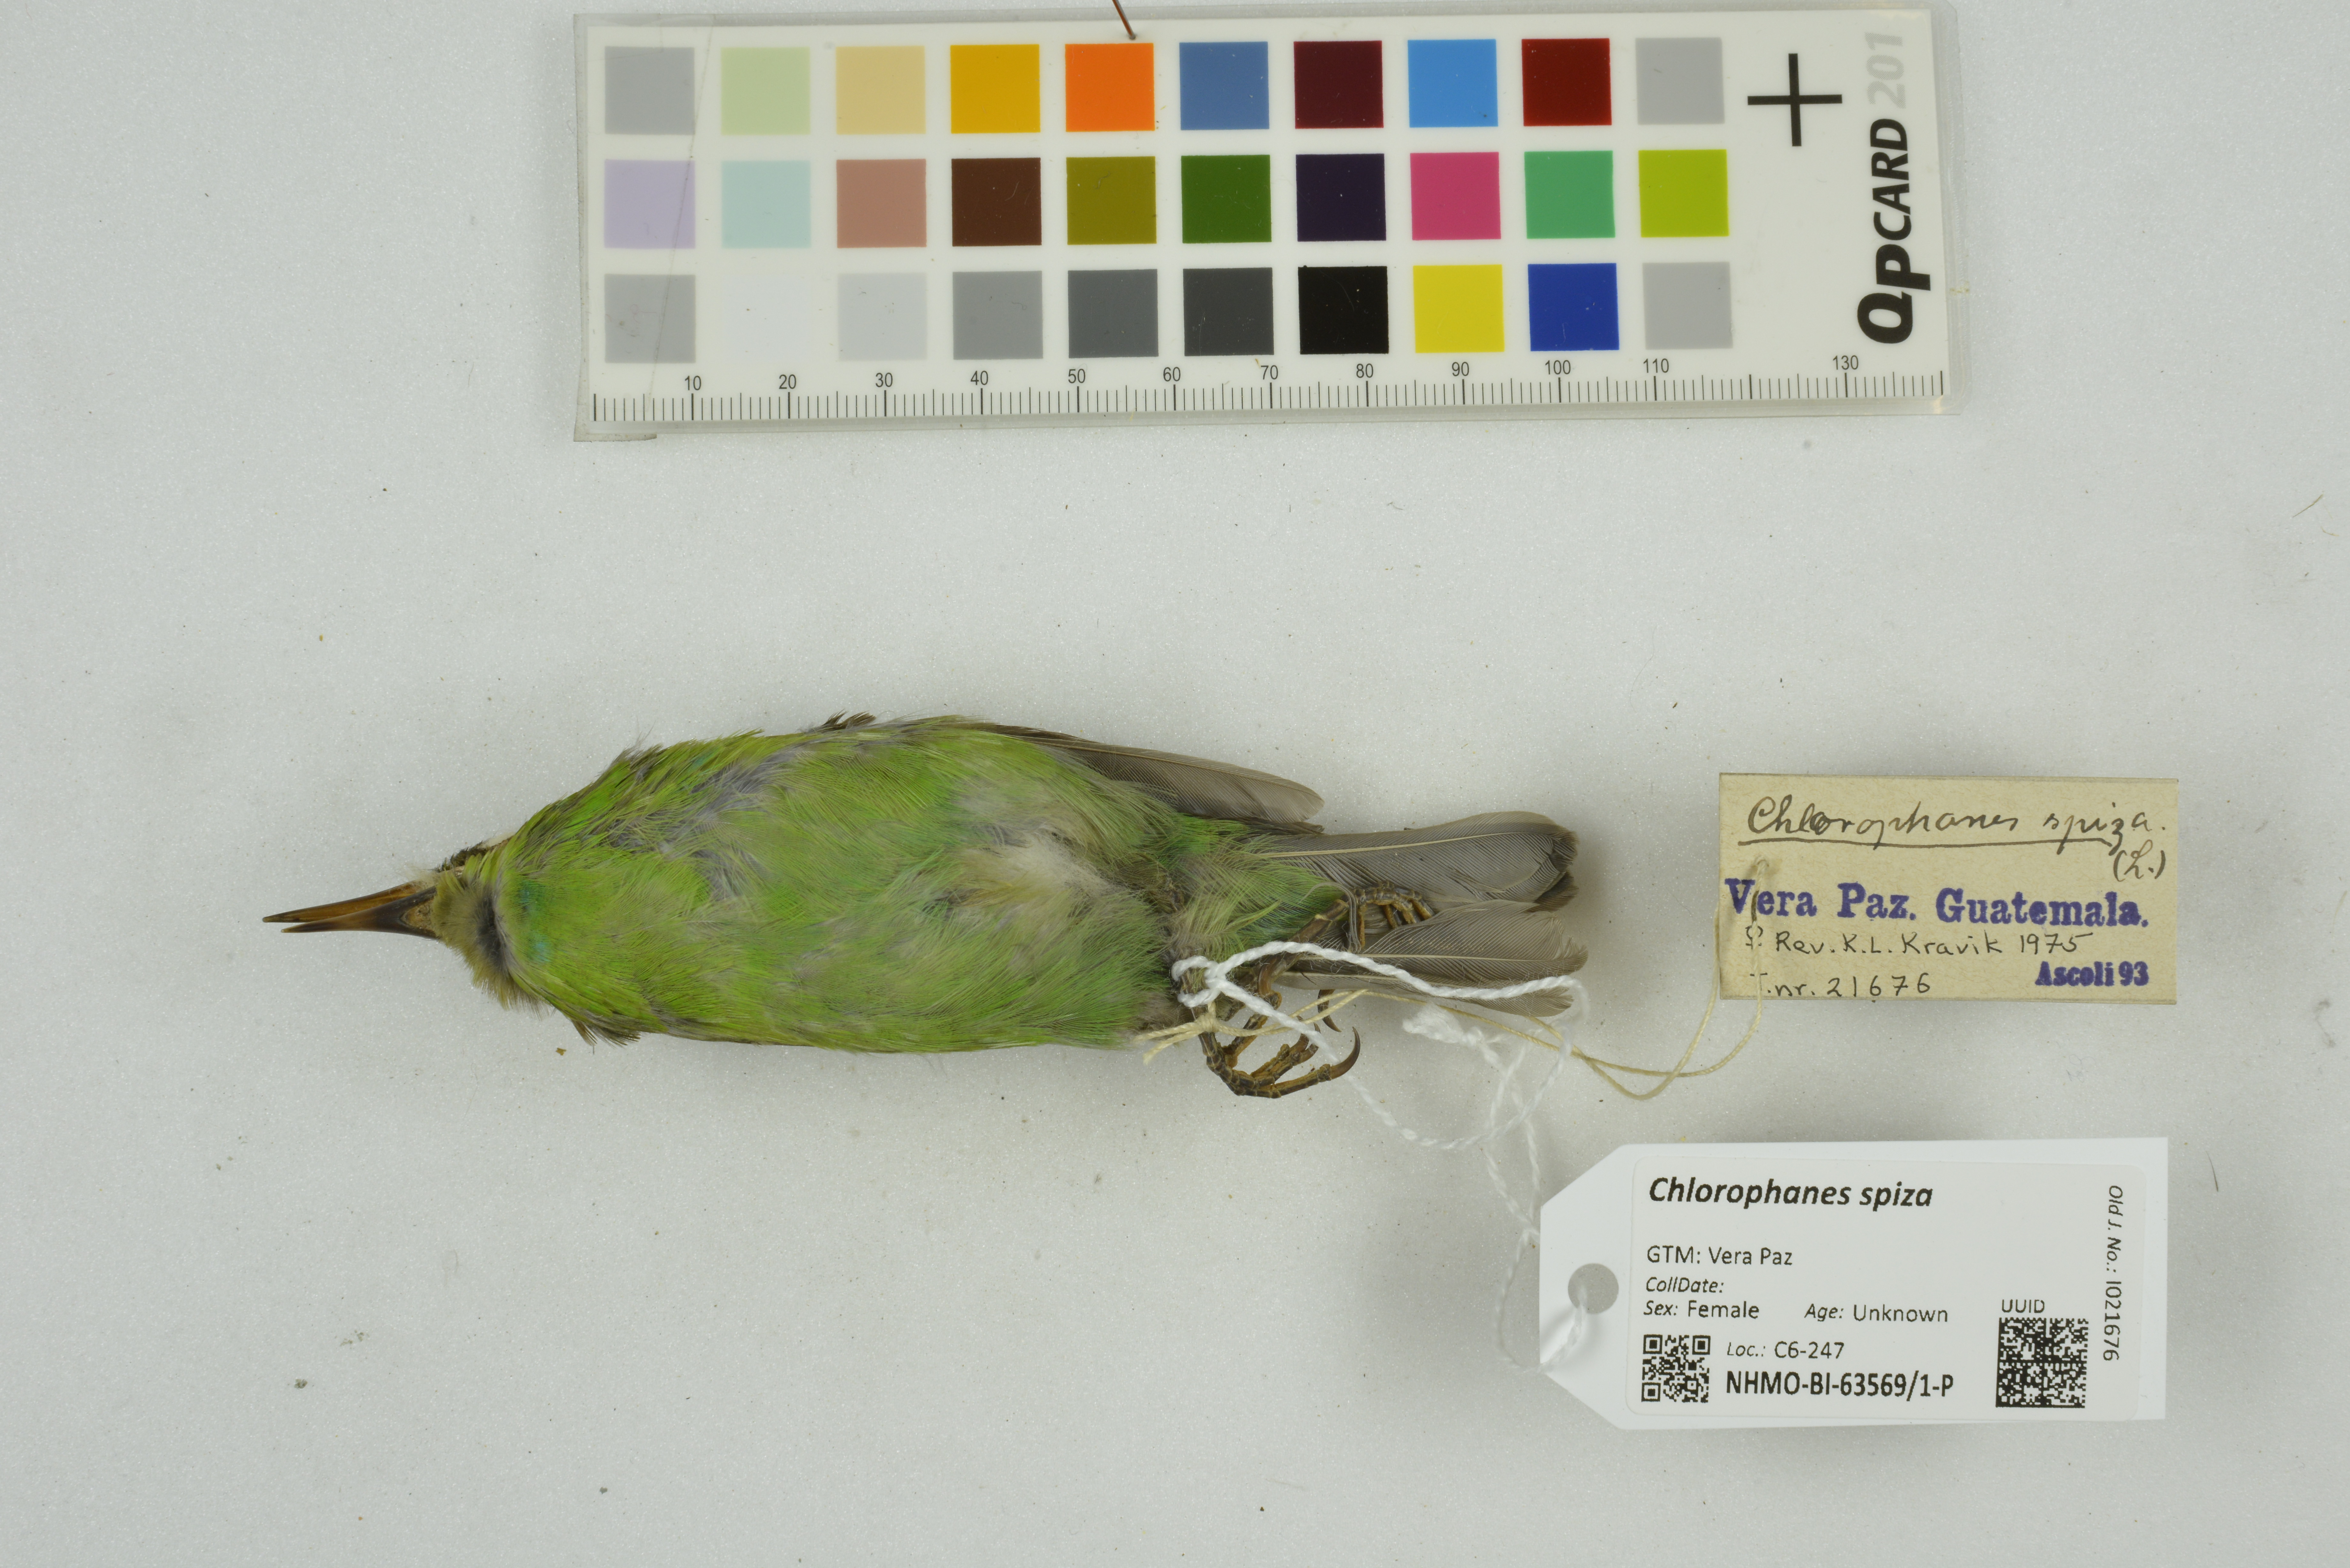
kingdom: Animalia
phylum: Chordata
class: Aves
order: Passeriformes
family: Thraupidae
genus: Chlorophanes
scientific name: Chlorophanes spiza
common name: Green honeycreeper
